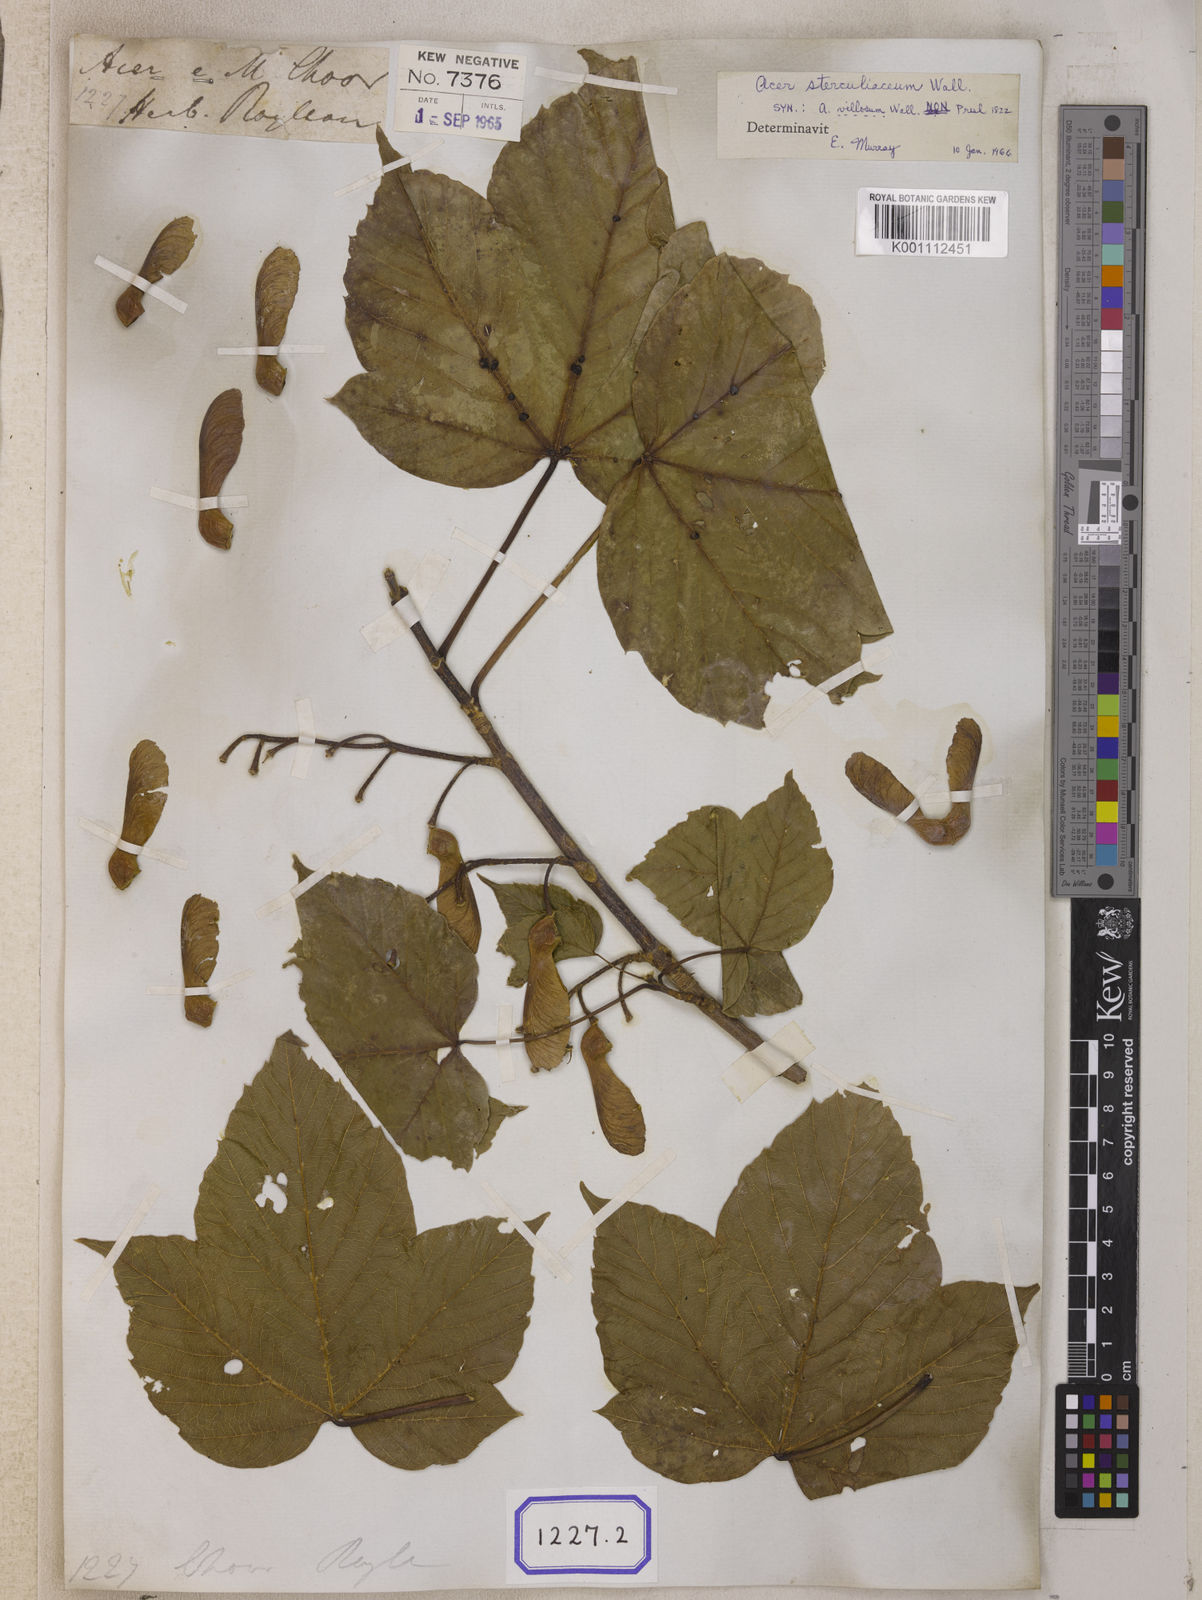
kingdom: Plantae
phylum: Tracheophyta
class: Magnoliopsida
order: Sapindales
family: Sapindaceae
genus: Acer
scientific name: Acer sterculiaceum
